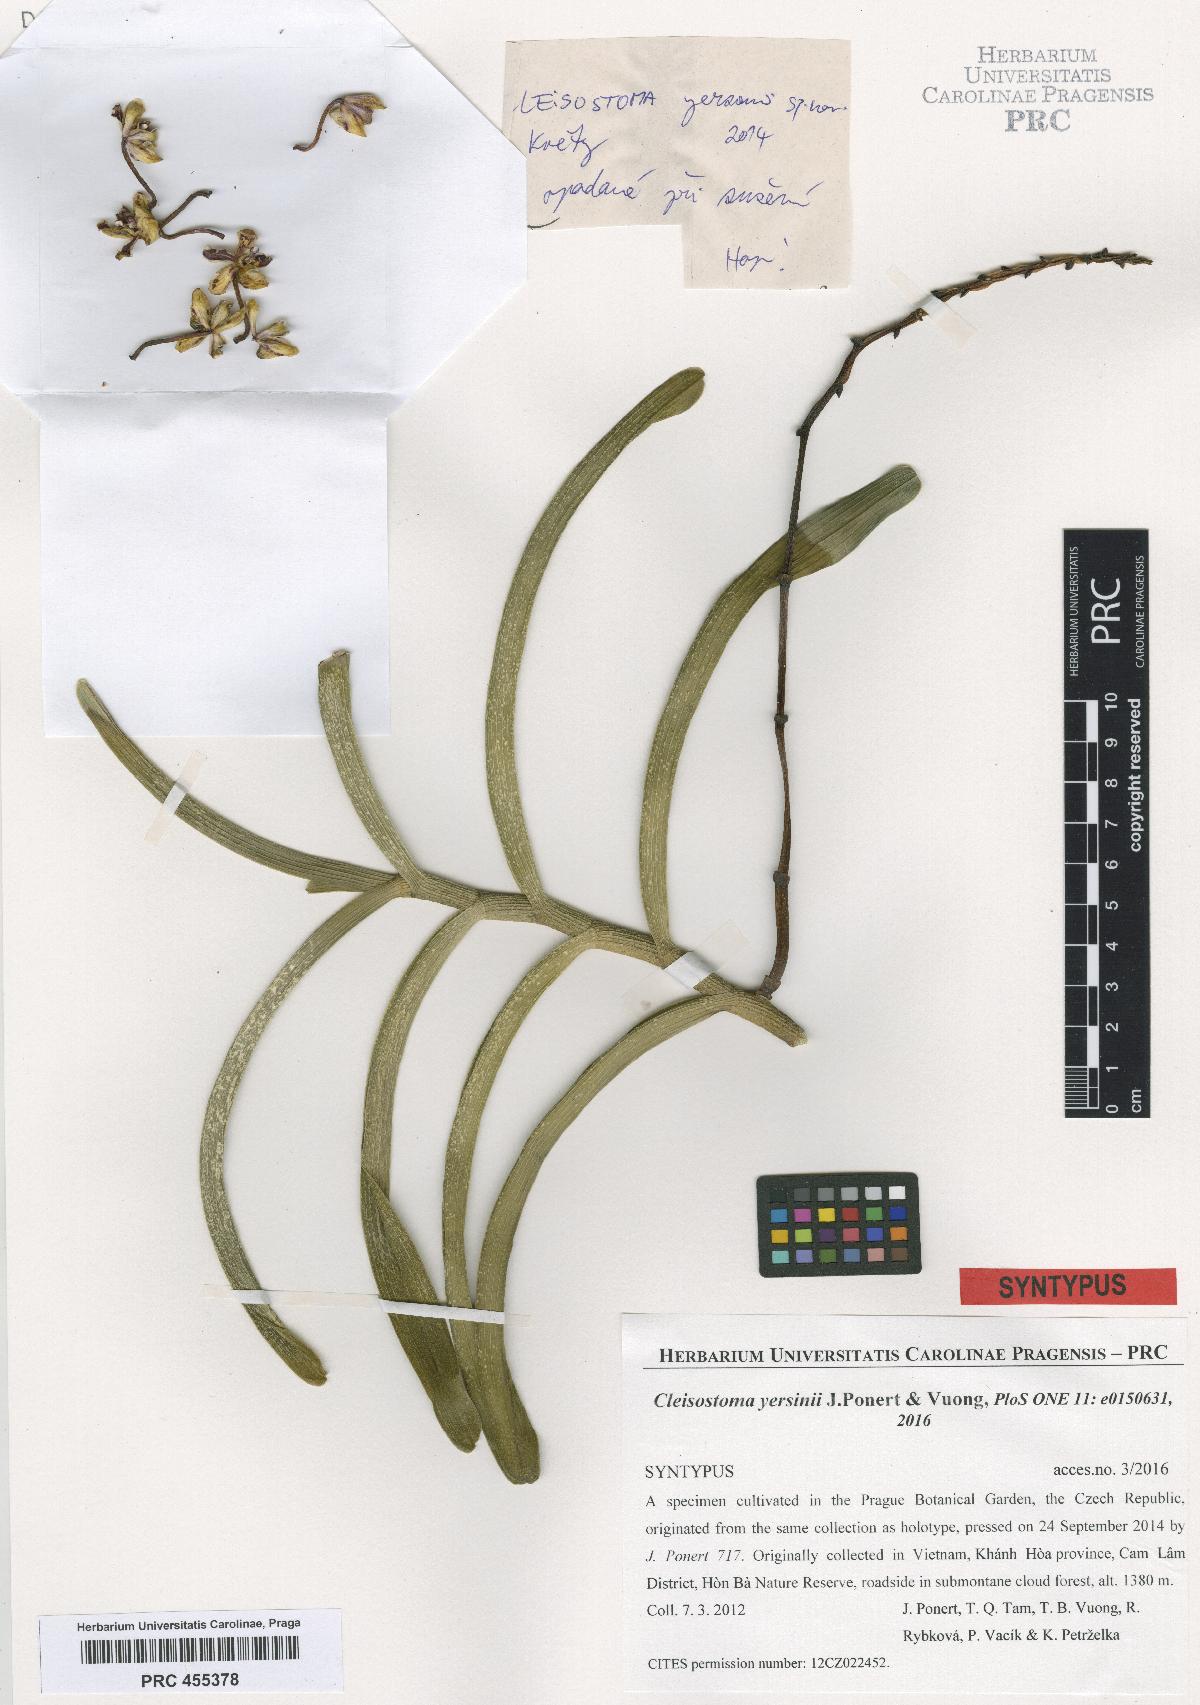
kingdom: Plantae
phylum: Tracheophyta
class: Liliopsida
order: Asparagales
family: Orchidaceae
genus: Cleisostoma
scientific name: Cleisostoma lecongkietii
